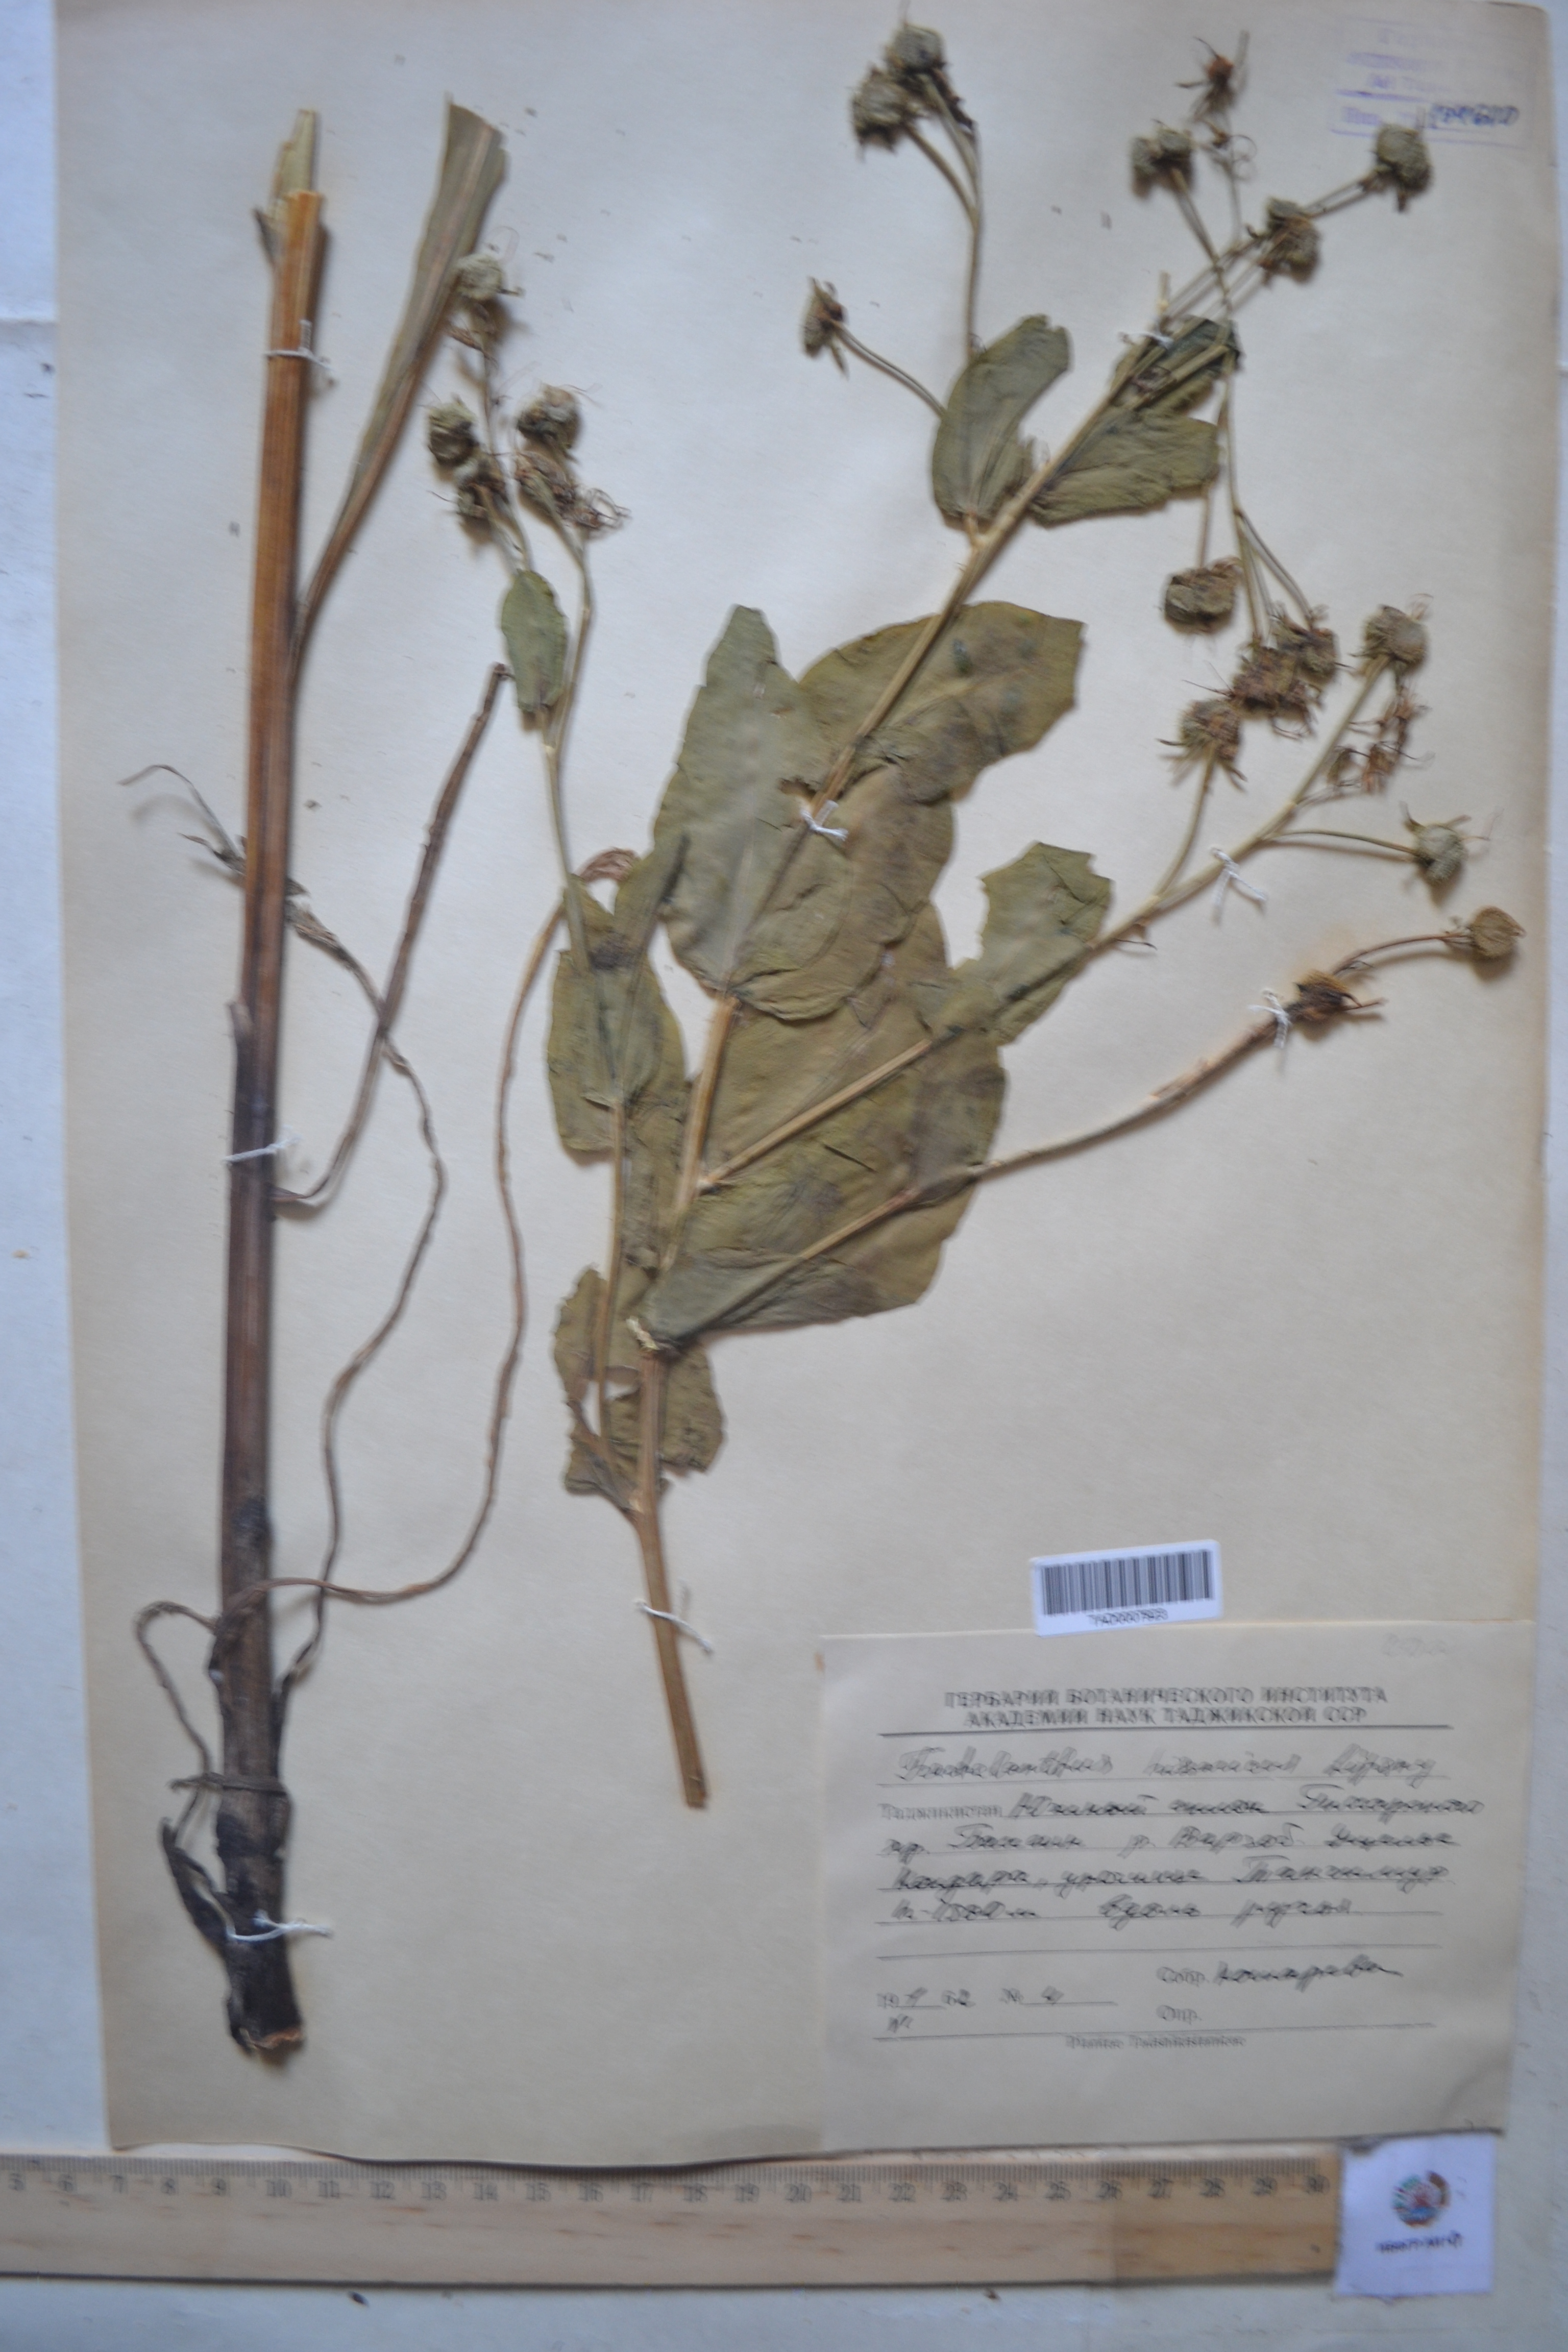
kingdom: Plantae
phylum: Tracheophyta
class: Magnoliopsida
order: Boraginales
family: Boraginaceae
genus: Lindelofia
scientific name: Lindelofia hissarica
